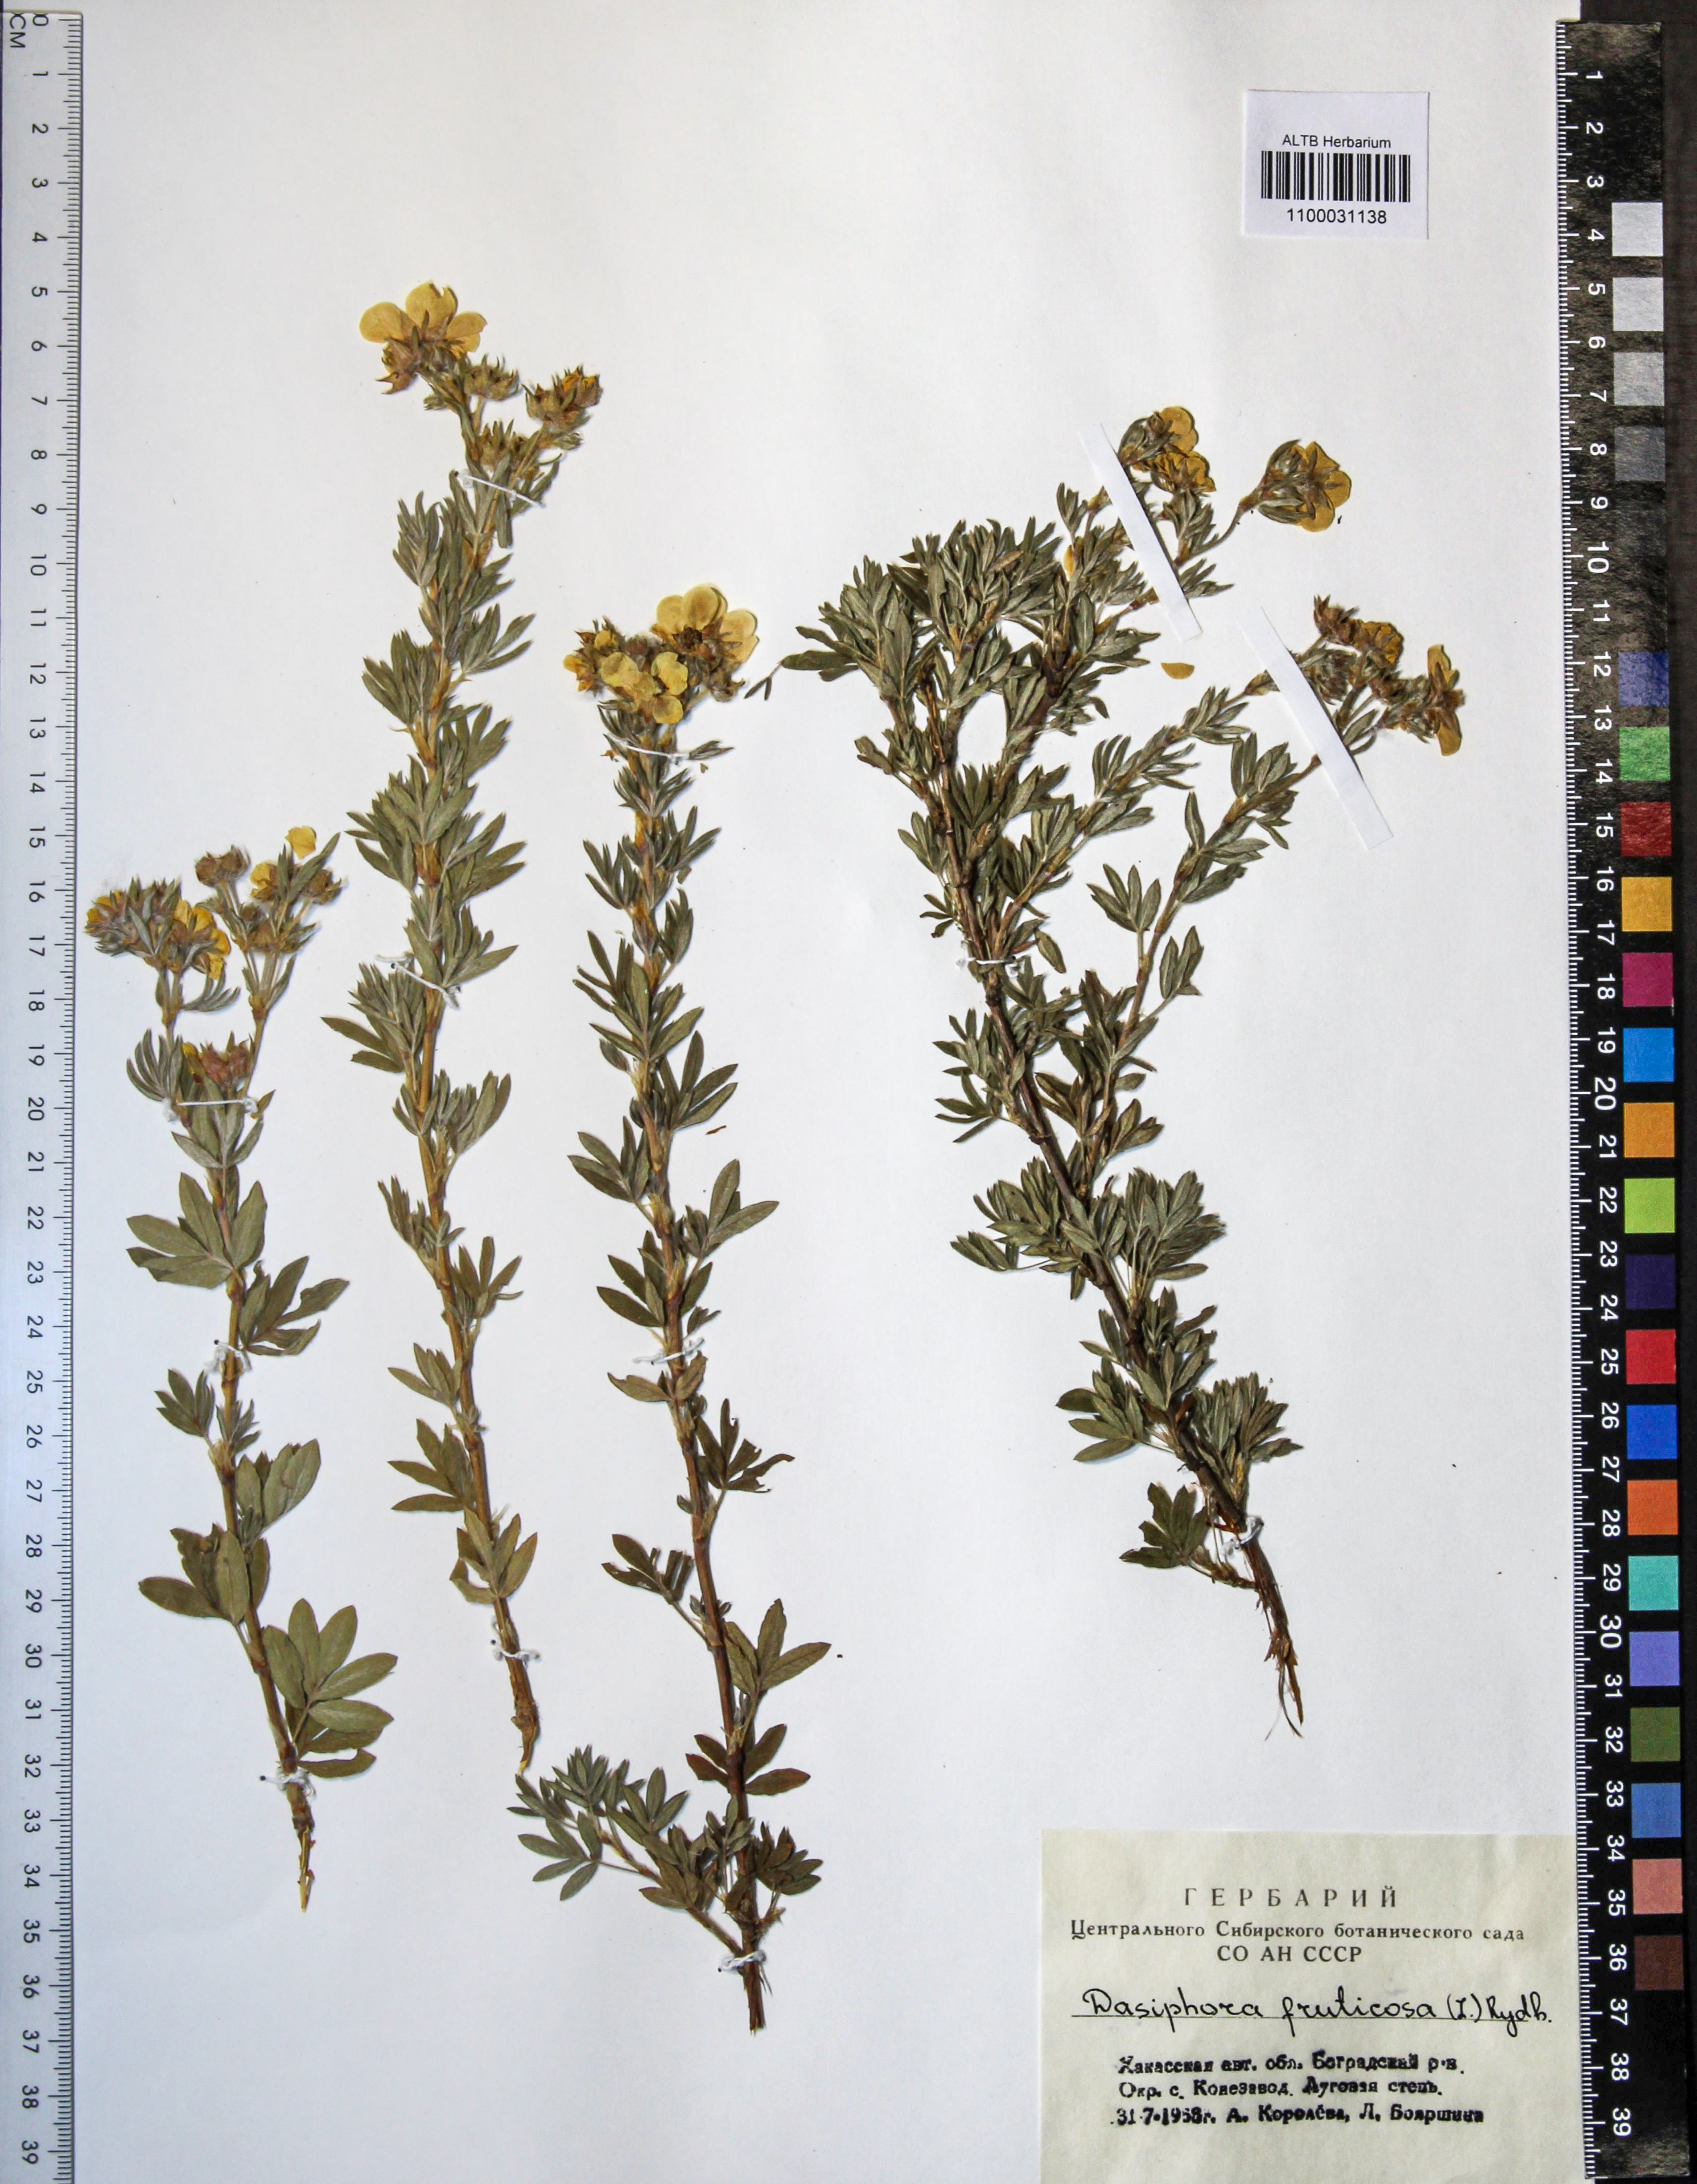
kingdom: Plantae
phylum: Tracheophyta
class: Magnoliopsida
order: Rosales
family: Rosaceae
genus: Dasiphora
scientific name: Dasiphora fruticosa
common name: Shrubby cinquefoil
